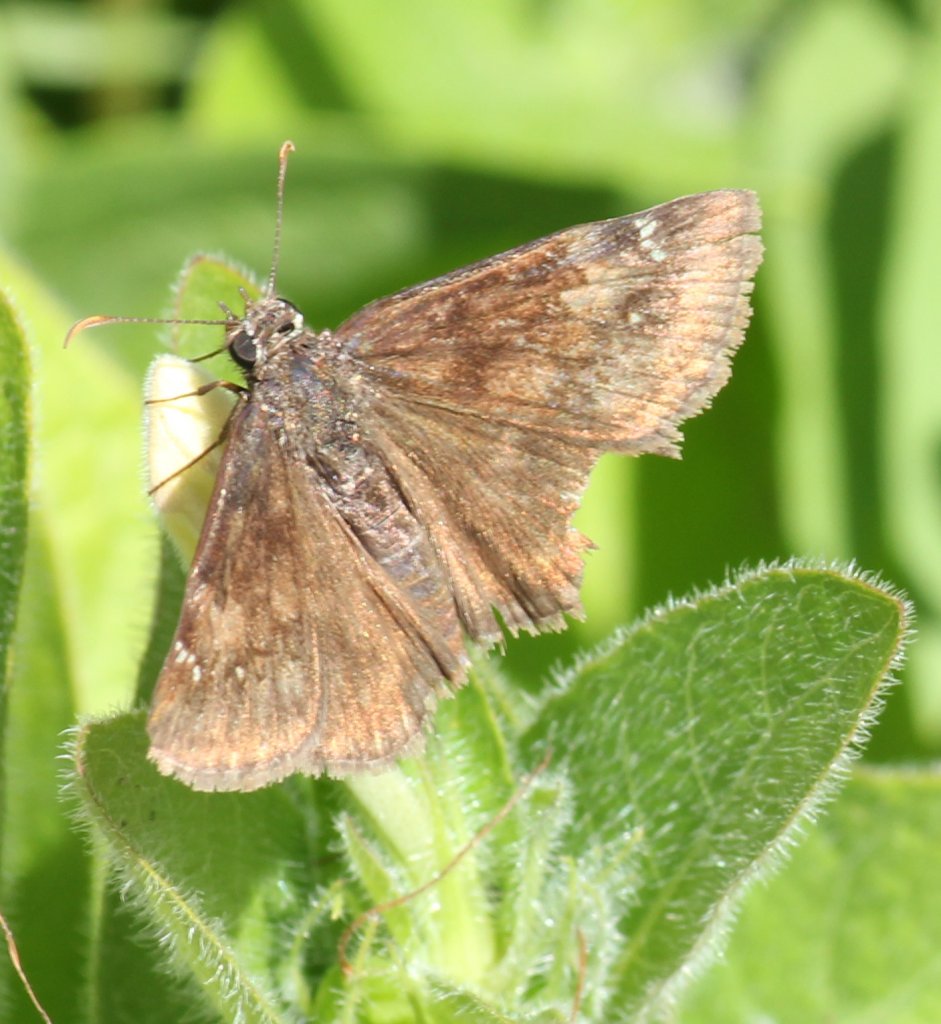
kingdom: Animalia
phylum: Arthropoda
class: Insecta
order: Lepidoptera
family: Hesperiidae
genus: Gesta
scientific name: Gesta
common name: Wild Indigo Duskywing
